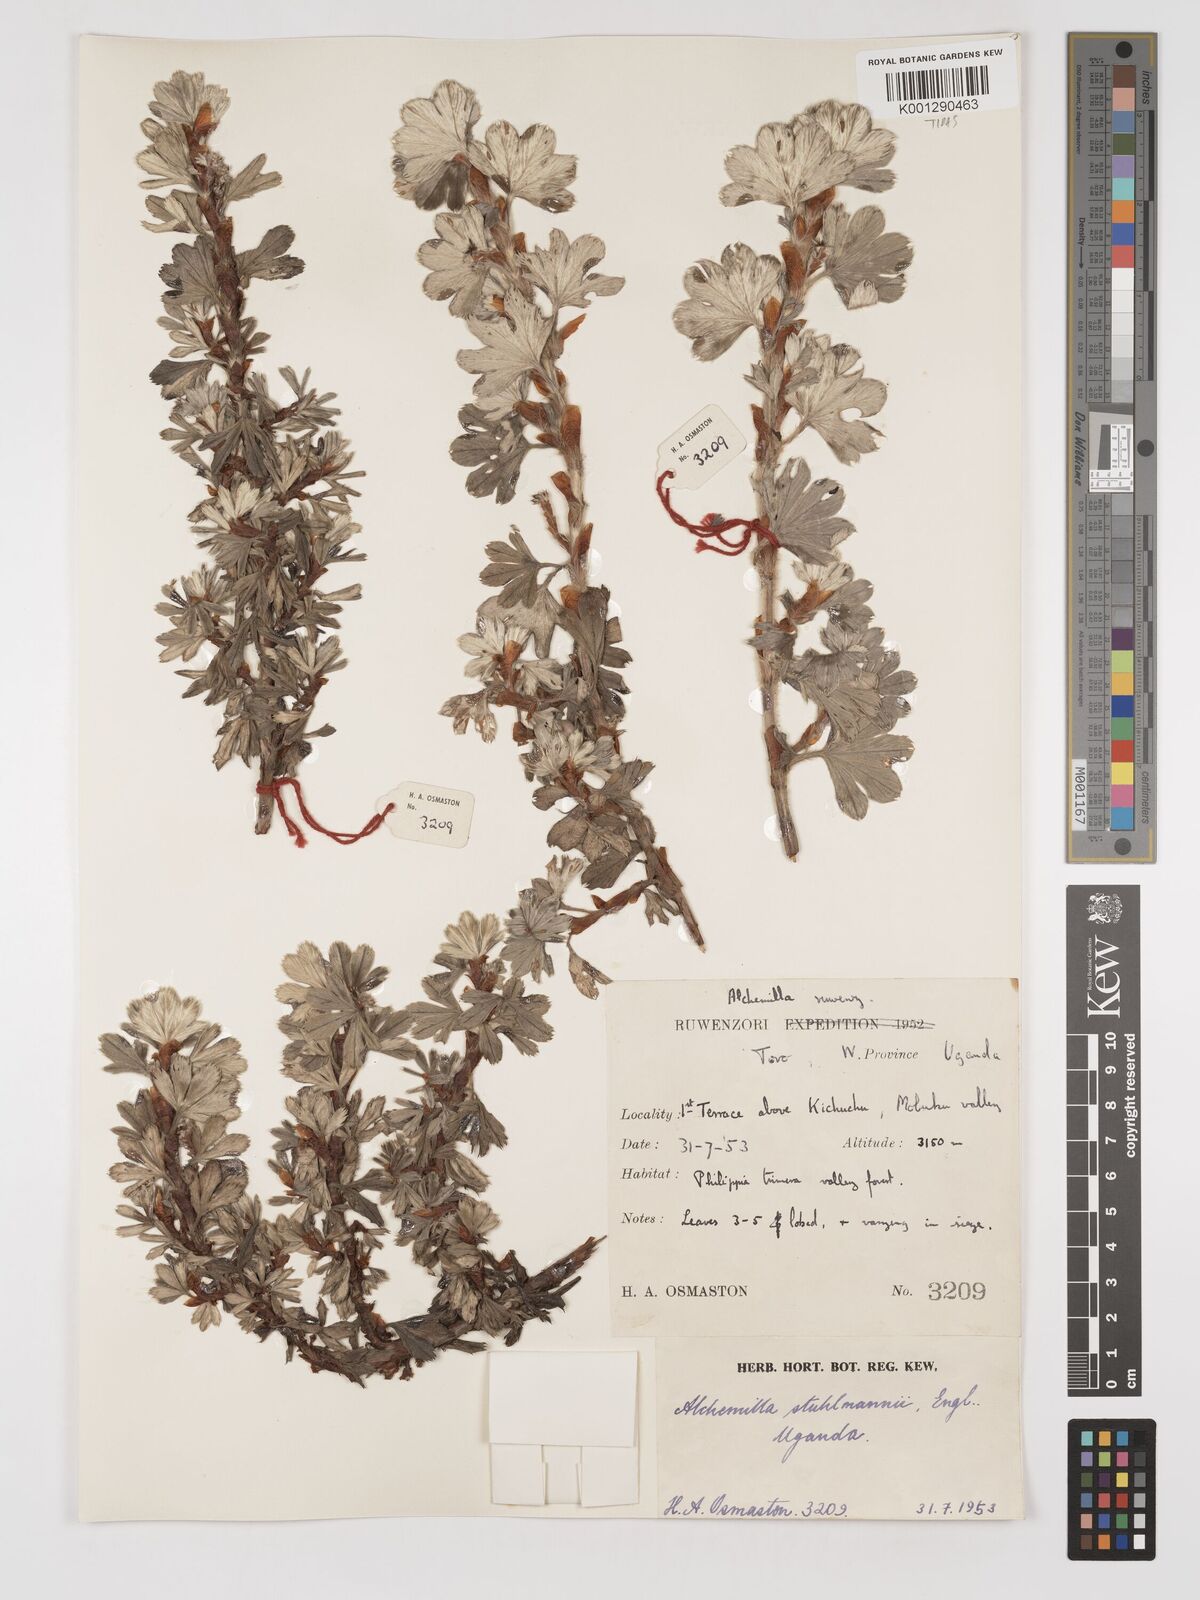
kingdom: Plantae
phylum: Tracheophyta
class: Magnoliopsida
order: Rosales
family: Rosaceae
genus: Alchemilla
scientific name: Alchemilla stuhlmannii
